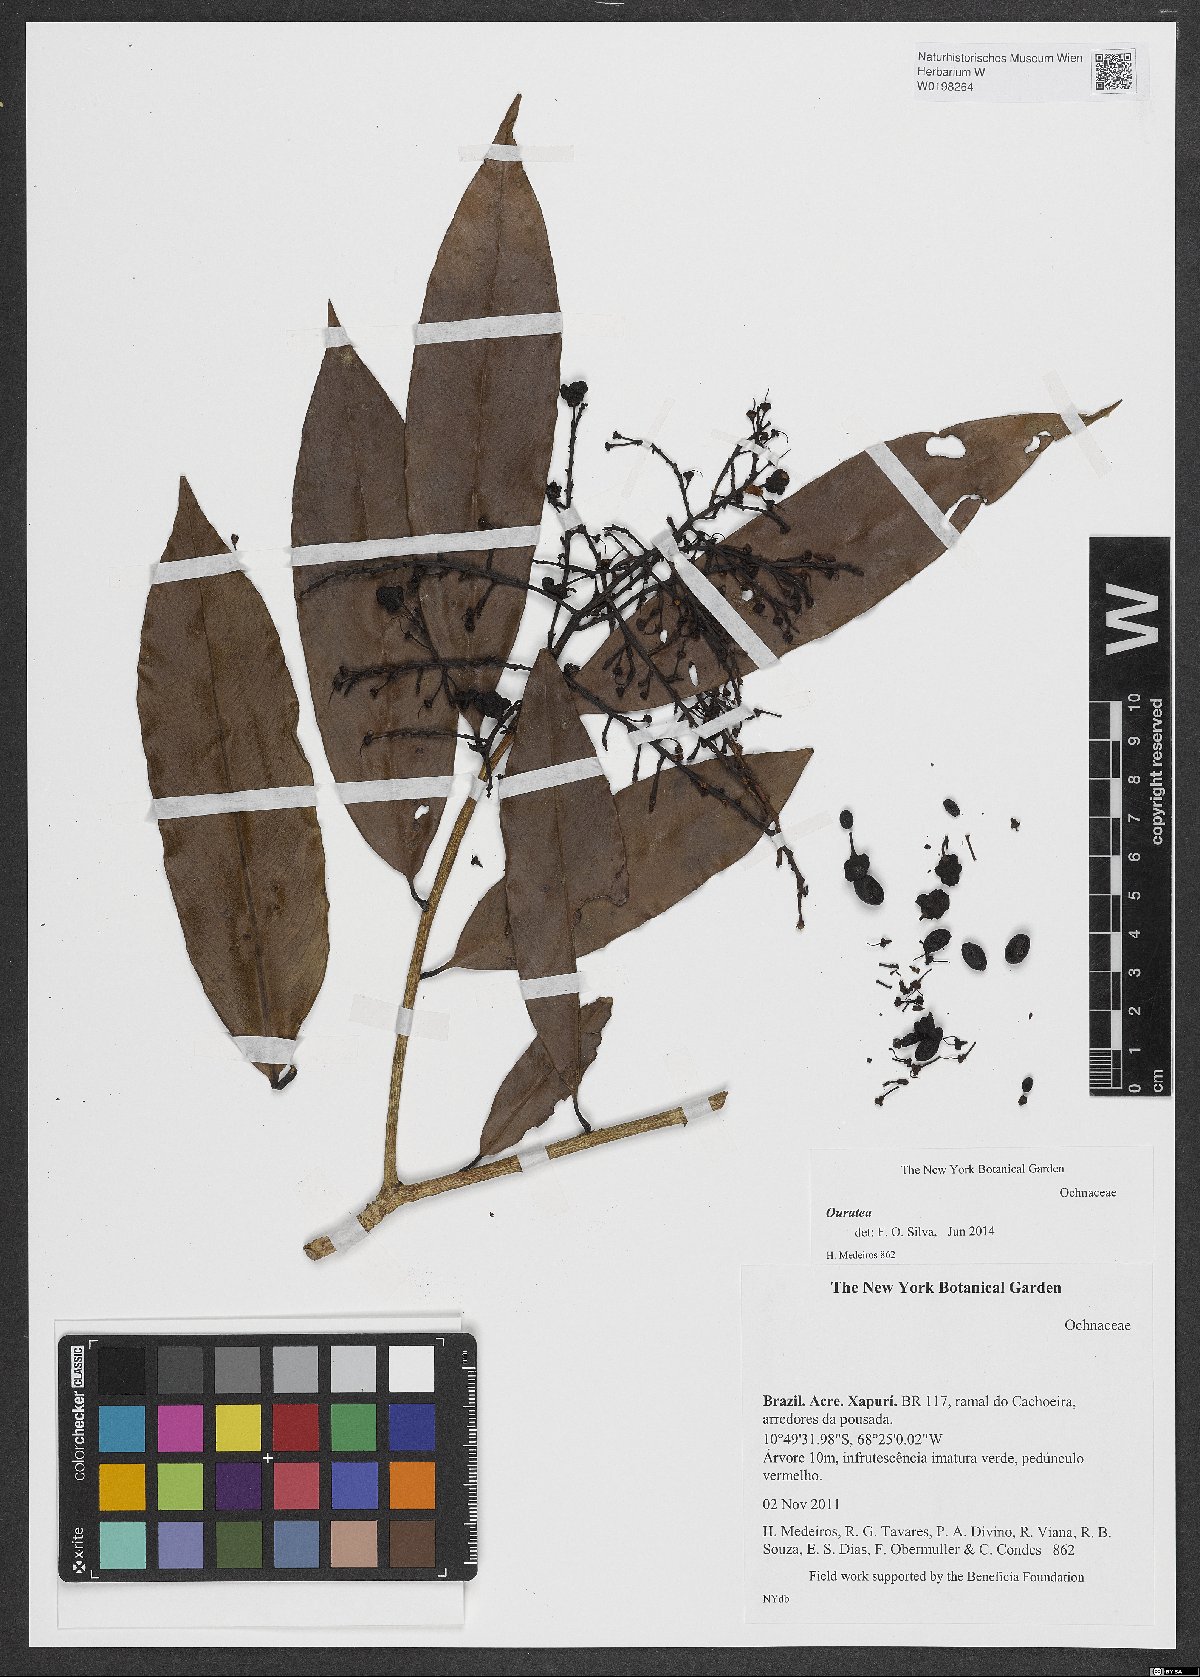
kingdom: Plantae
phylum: Tracheophyta
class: Magnoliopsida
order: Malpighiales
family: Ochnaceae
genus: Ouratea
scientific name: Ouratea
